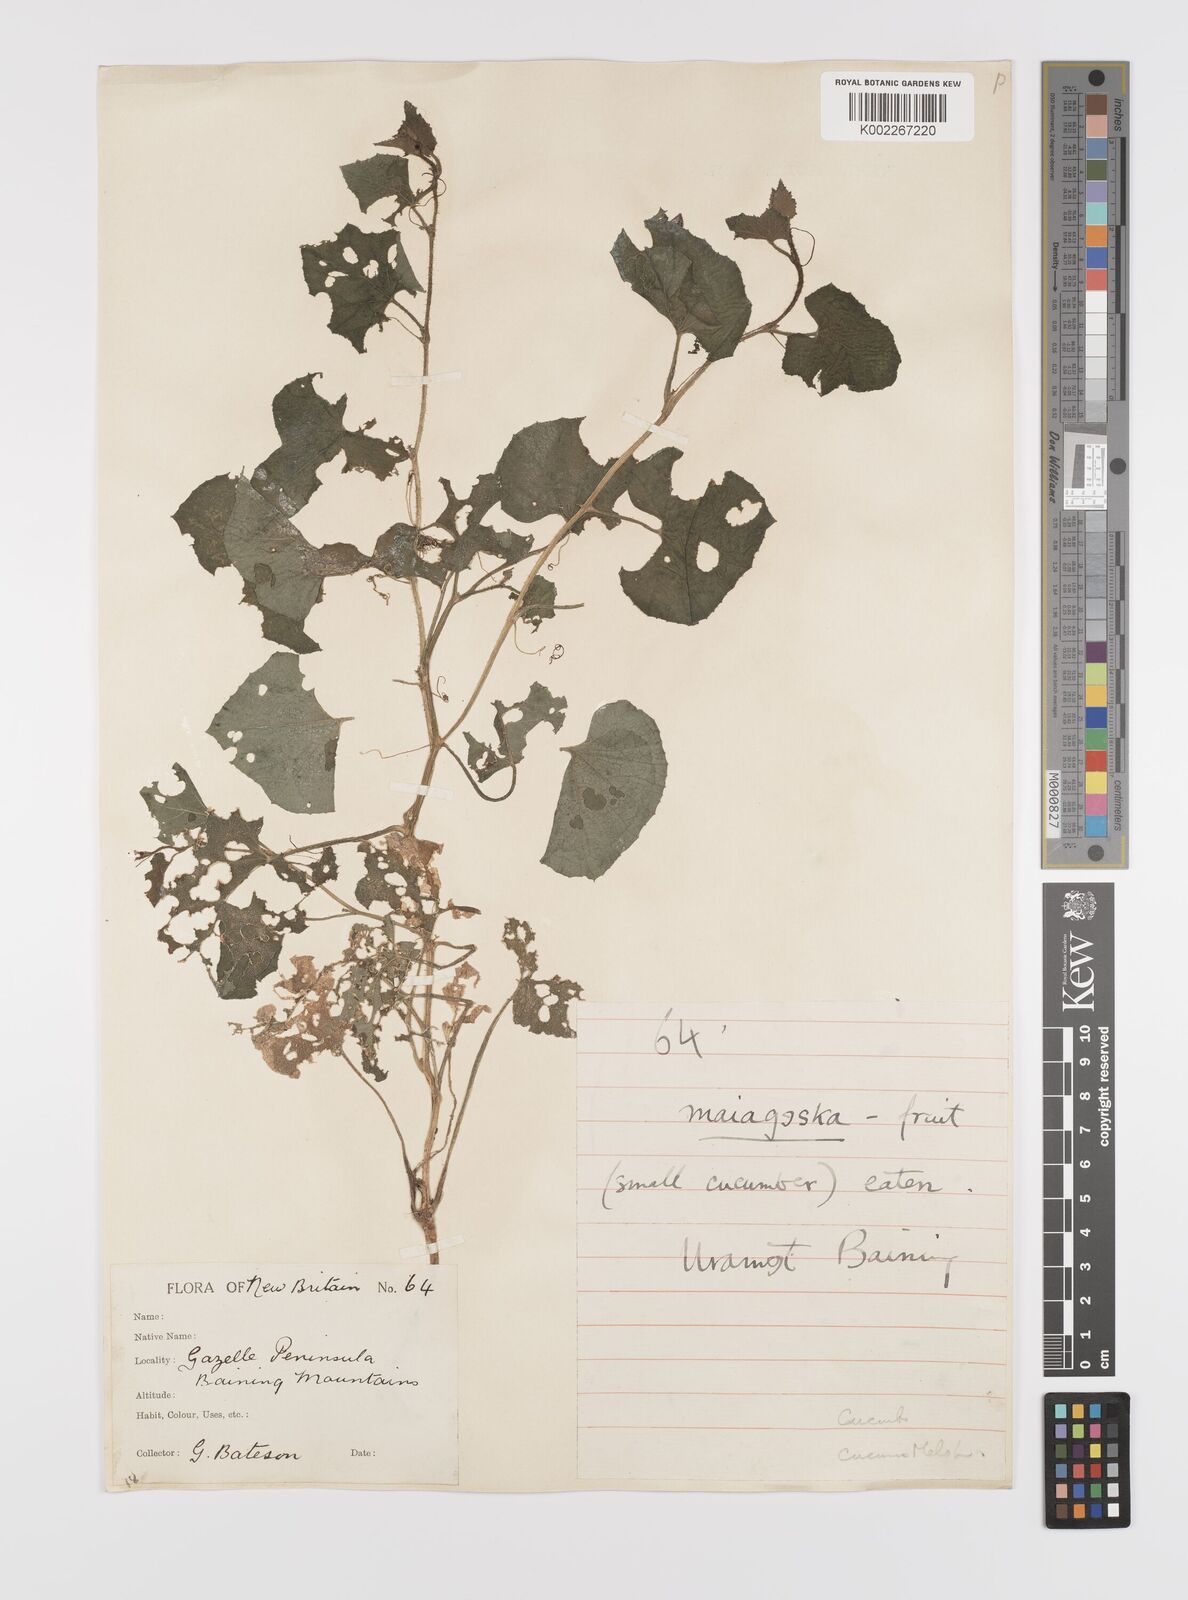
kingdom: Plantae
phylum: Tracheophyta
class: Magnoliopsida
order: Cucurbitales
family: Cucurbitaceae
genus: Cucumis
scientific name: Cucumis melo
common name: Melon
